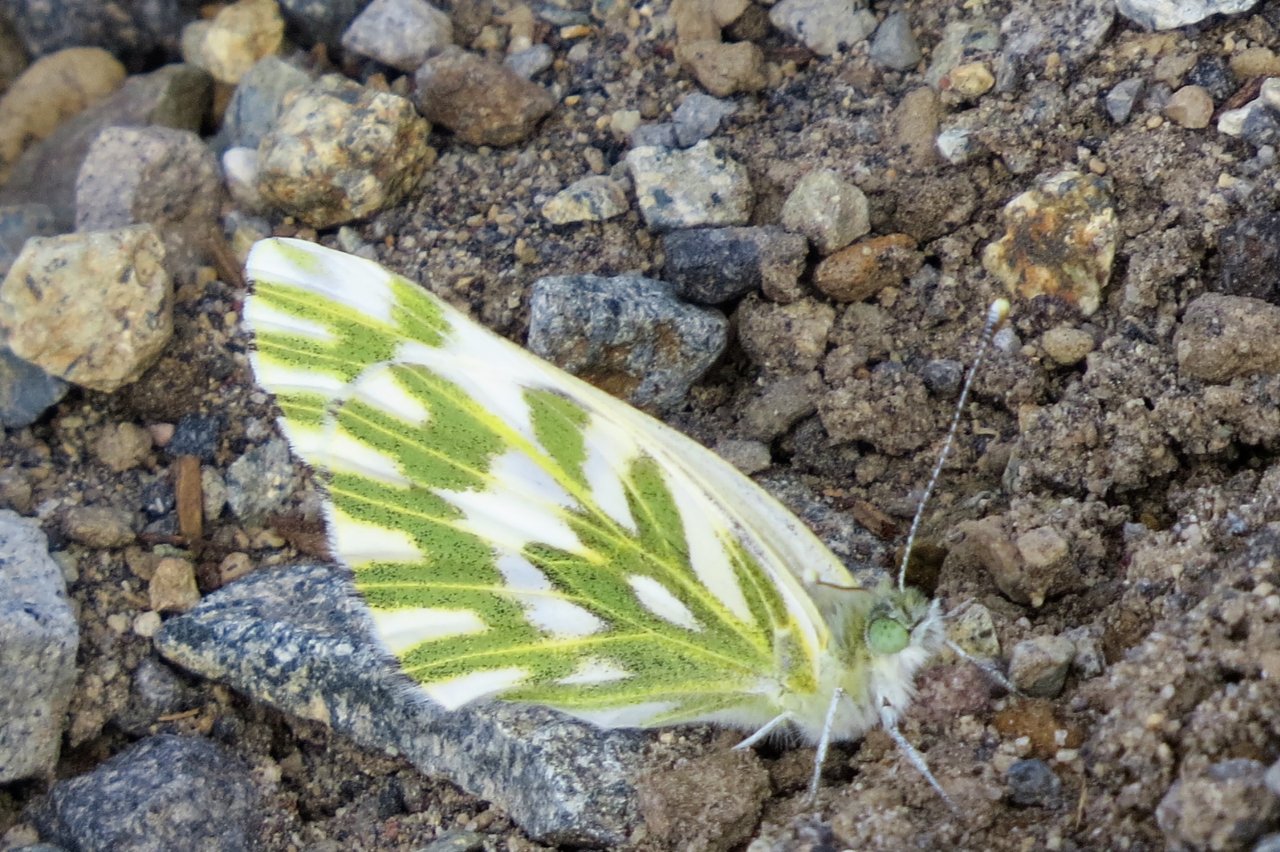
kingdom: Animalia
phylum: Arthropoda
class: Insecta
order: Lepidoptera
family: Pieridae
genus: Pontia
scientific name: Pontia beckerii
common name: Becker's White
